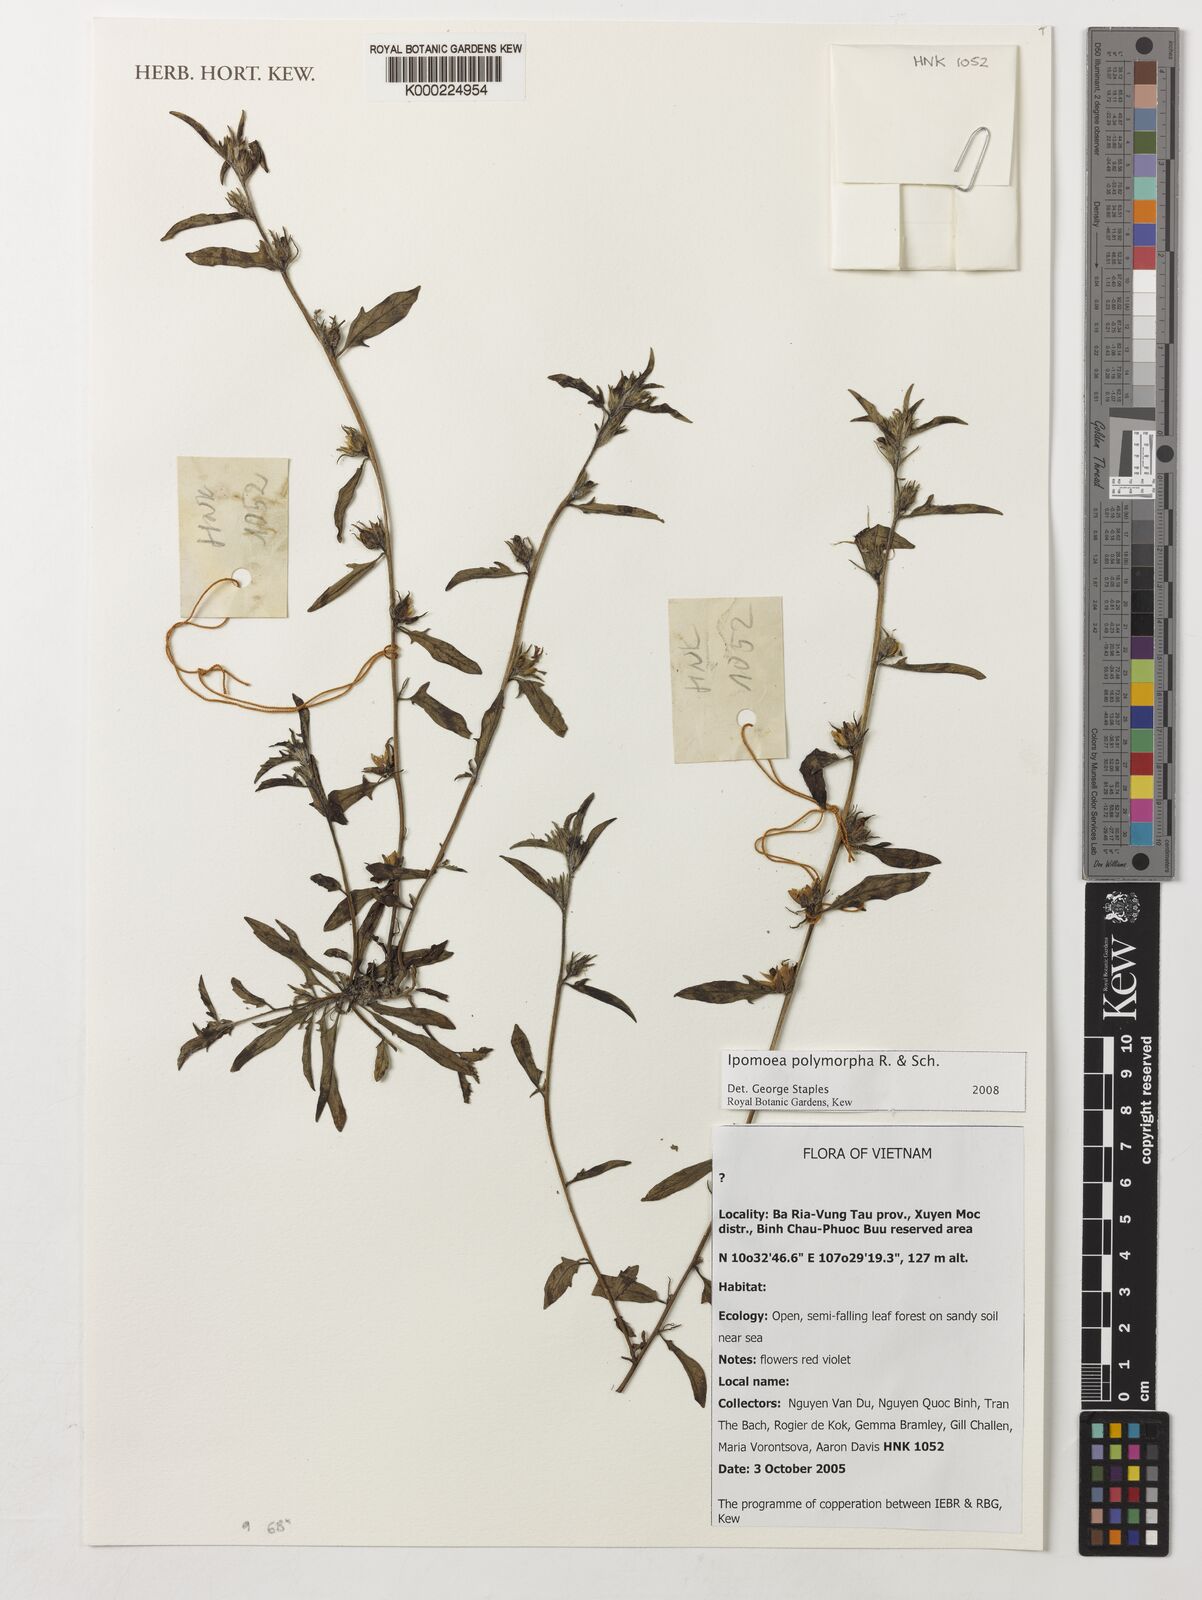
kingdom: Plantae
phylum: Tracheophyta
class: Magnoliopsida
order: Solanales
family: Convolvulaceae
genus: Ipomoea
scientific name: Ipomoea polymorpha
